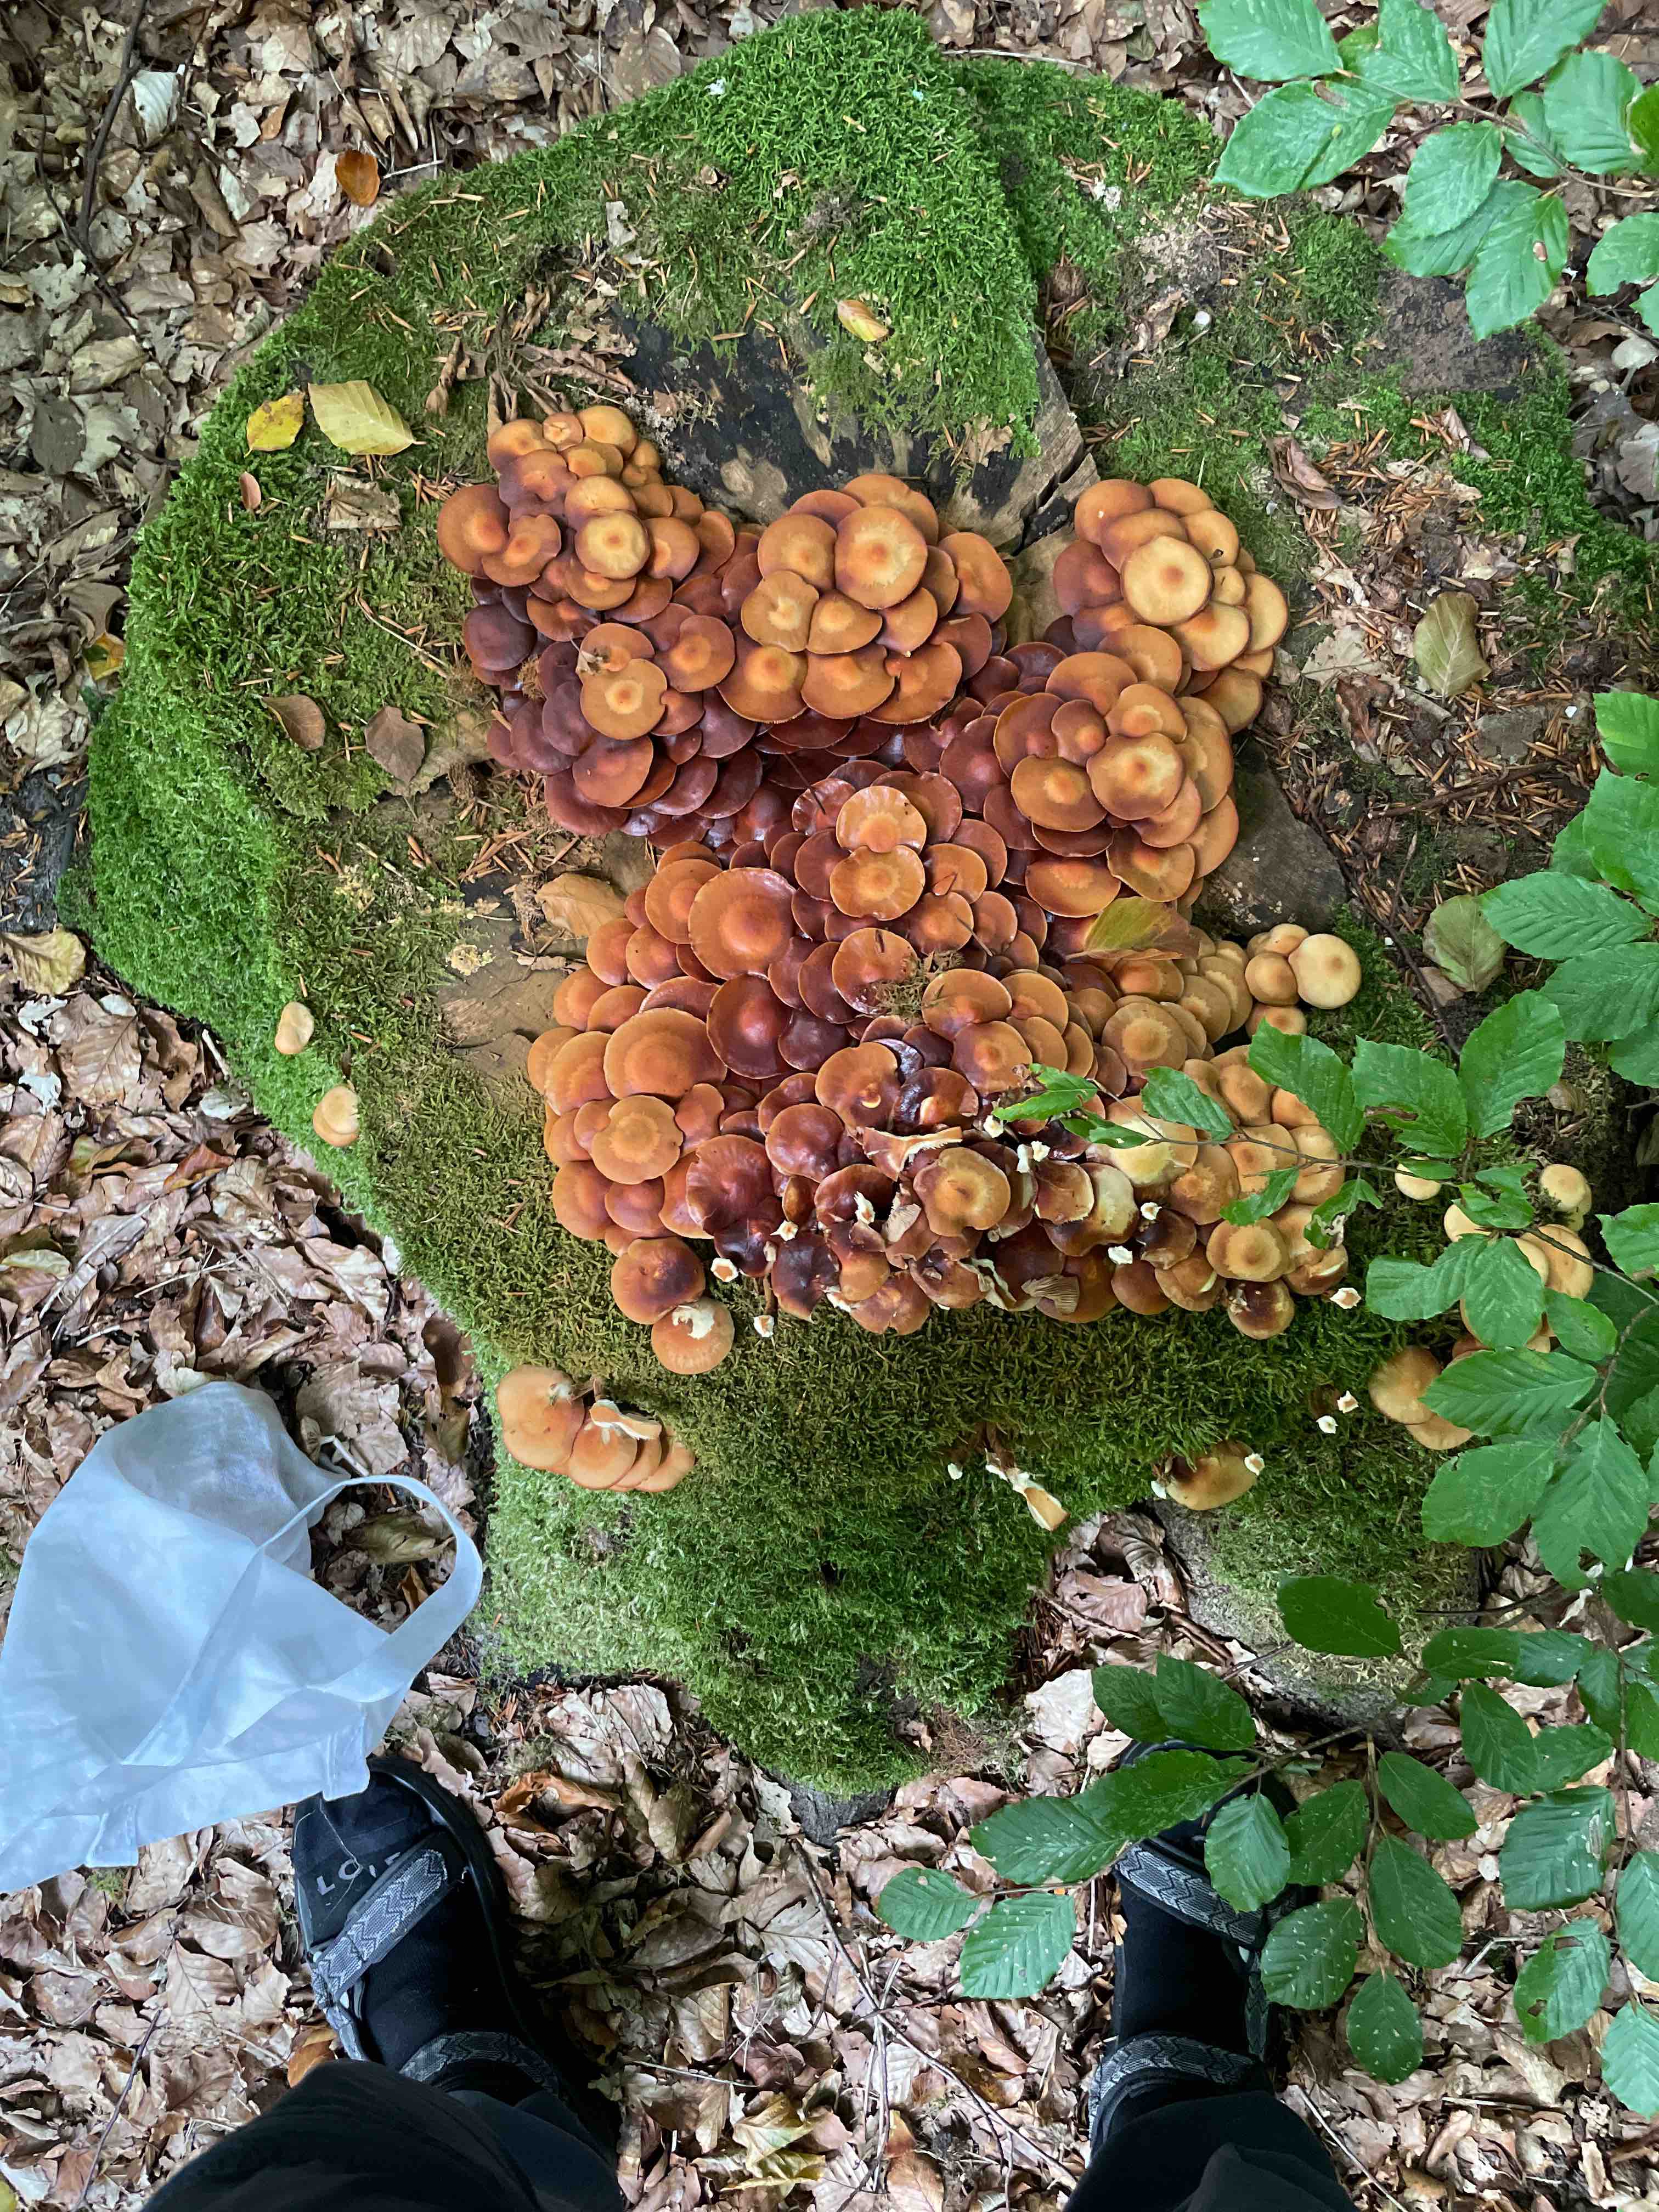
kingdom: Fungi
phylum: Basidiomycota
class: Agaricomycetes
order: Agaricales
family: Strophariaceae
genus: Kuehneromyces
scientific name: Kuehneromyces mutabilis
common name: foranderlig skælhat
